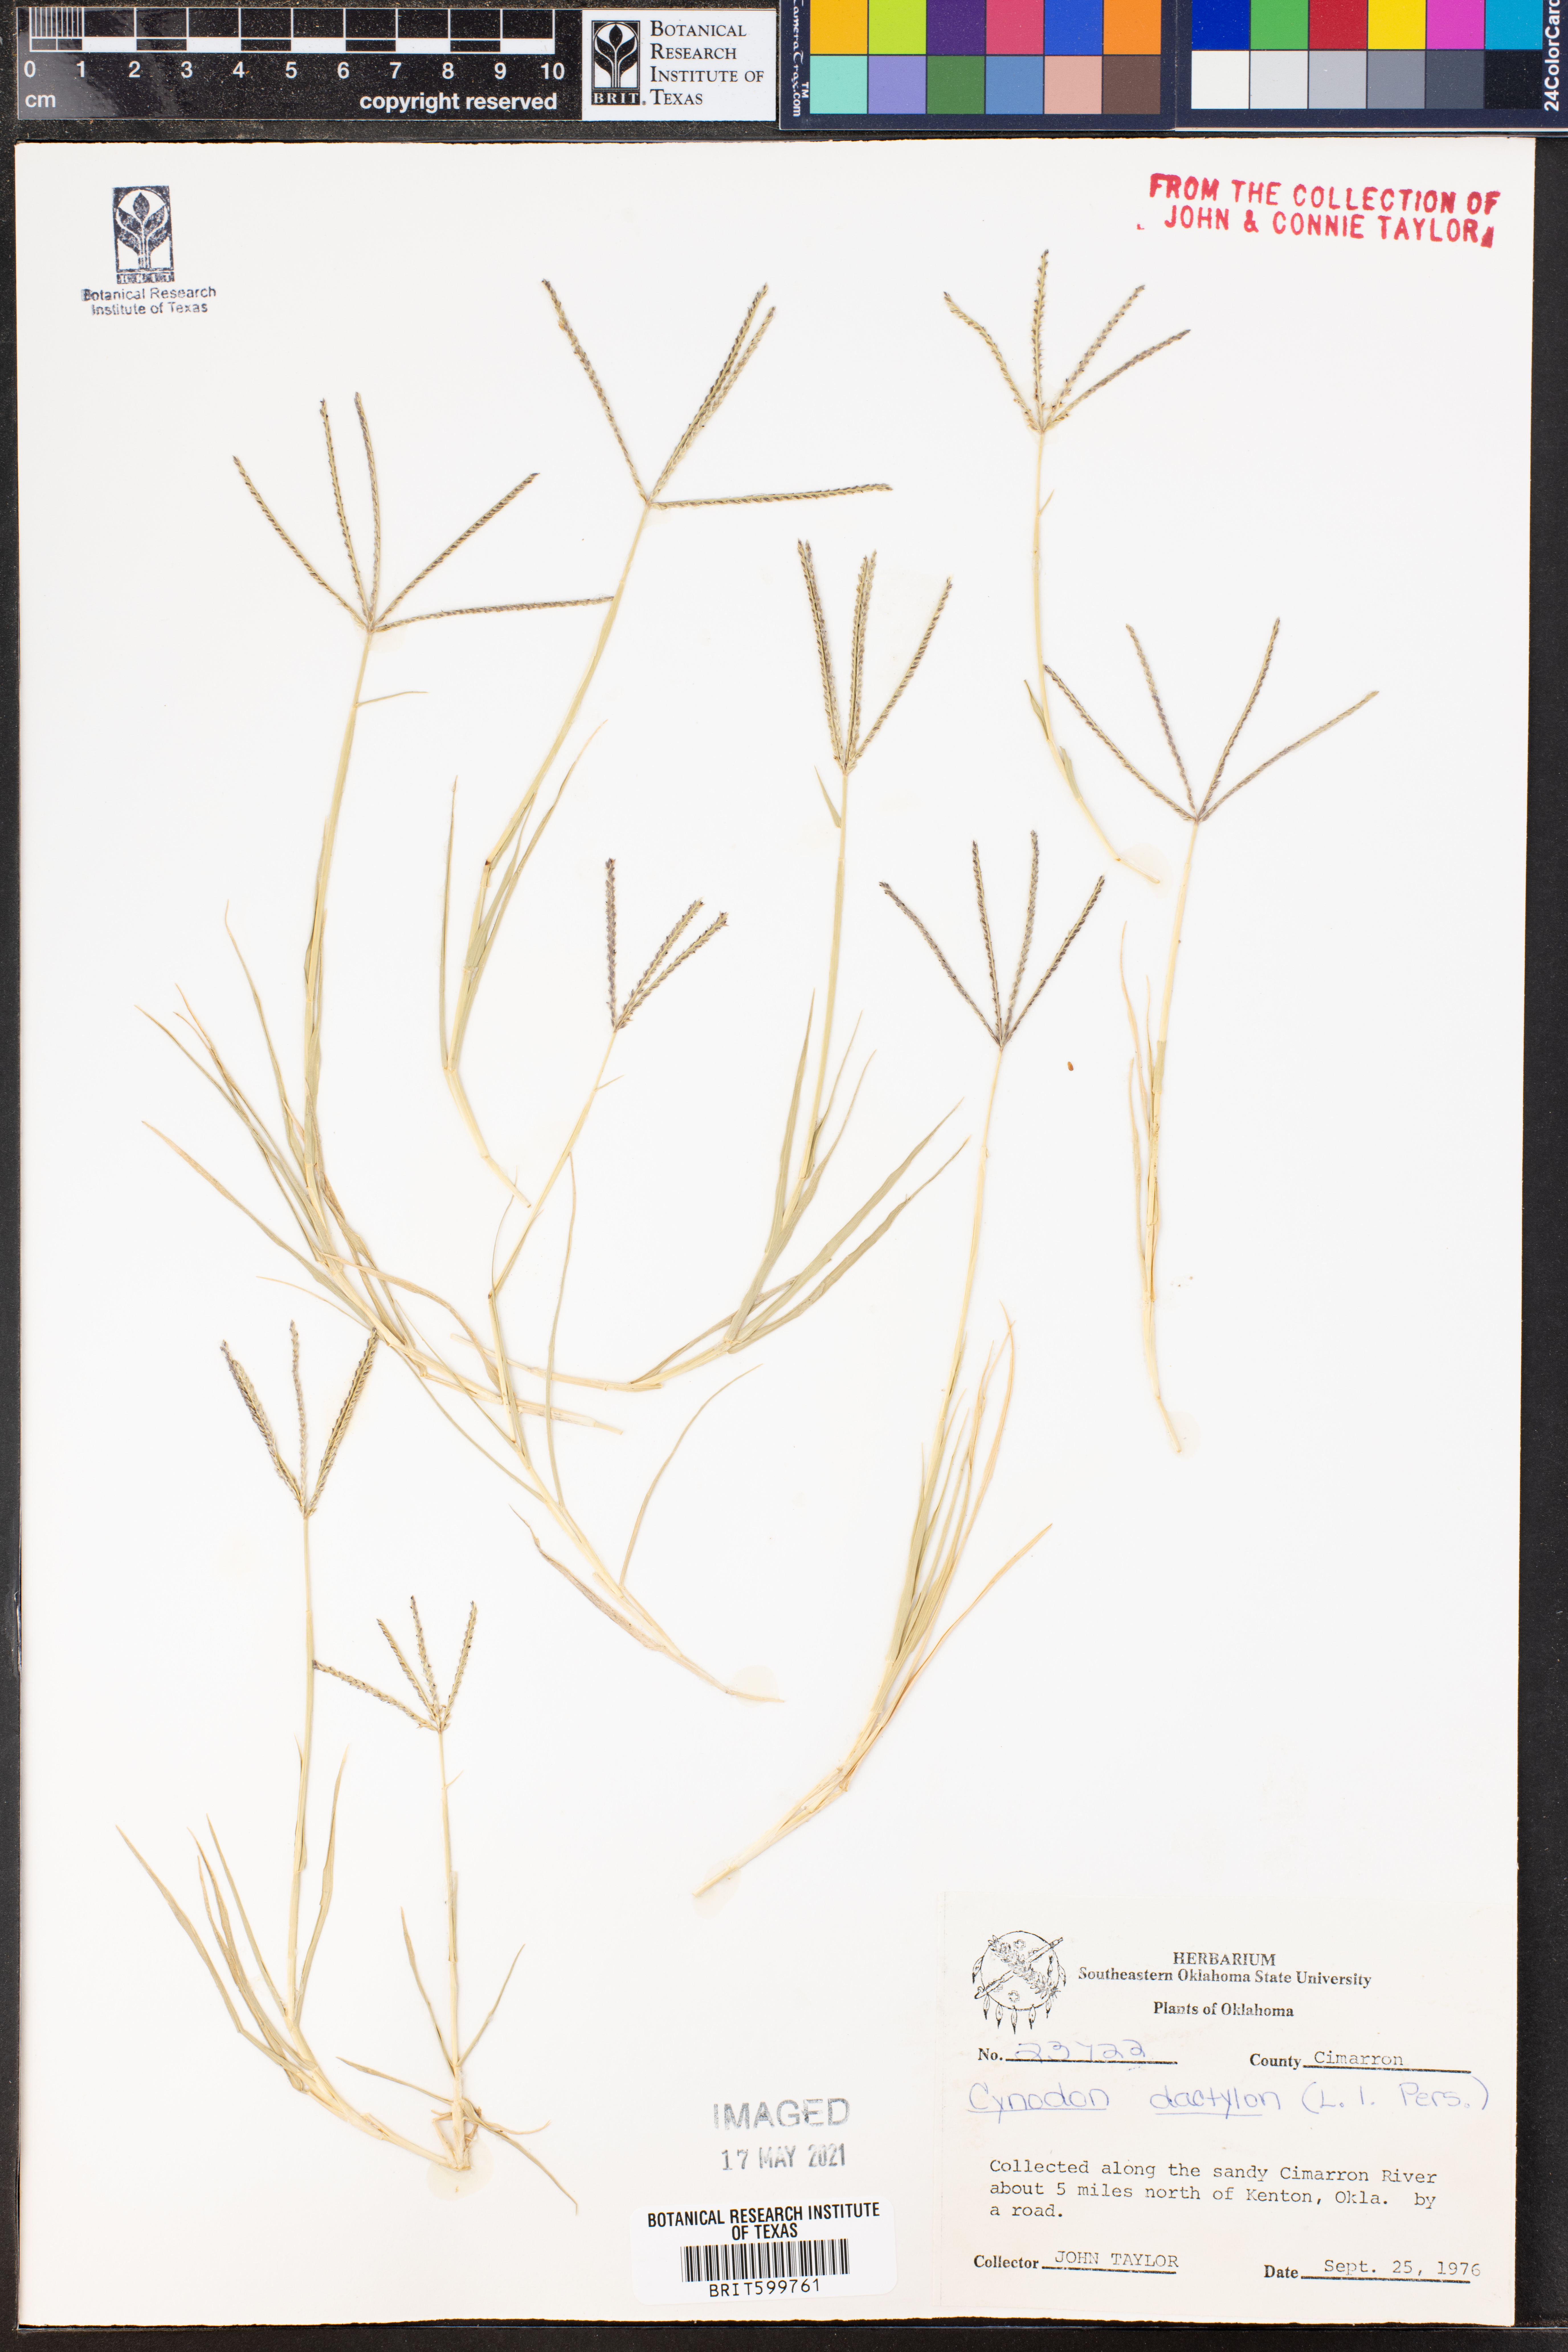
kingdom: Plantae
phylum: Tracheophyta
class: Liliopsida
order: Poales
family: Poaceae
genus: Cynodon
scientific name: Cynodon dactylon
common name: Bermuda grass
